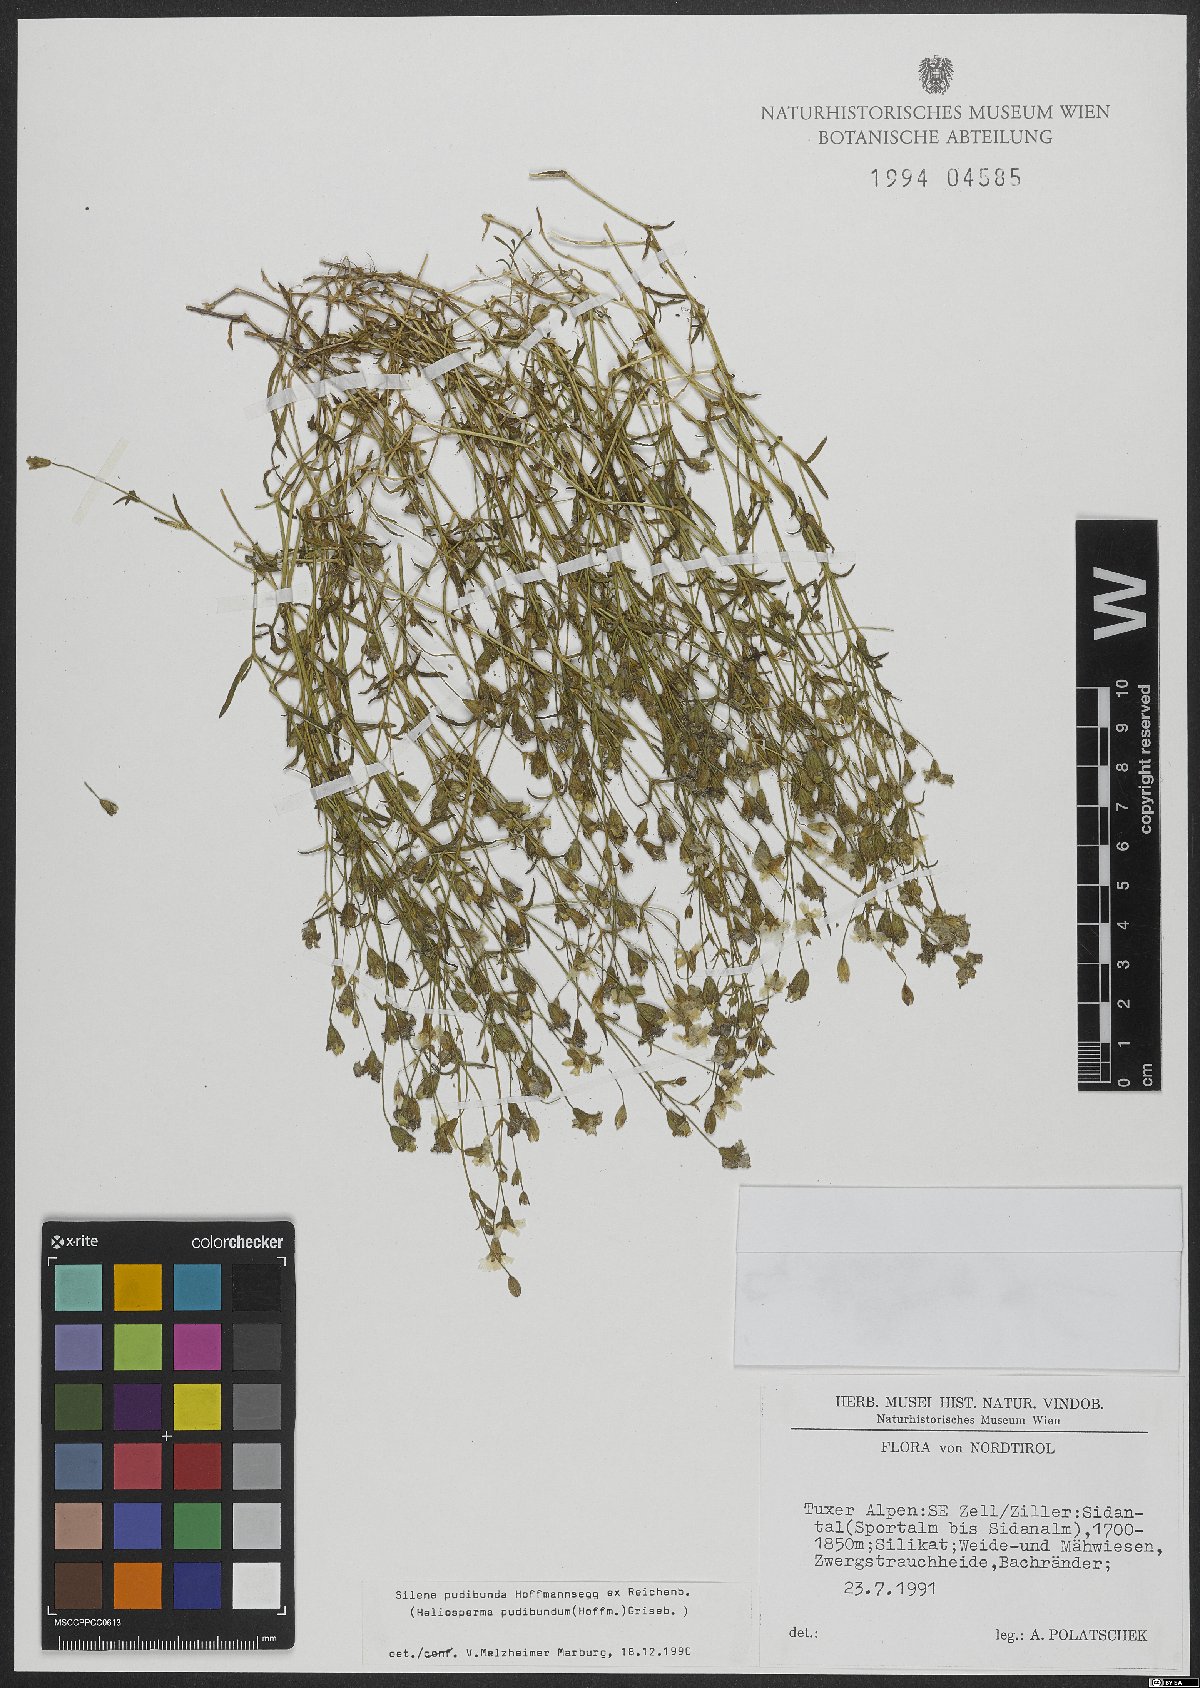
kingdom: Plantae
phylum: Tracheophyta
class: Magnoliopsida
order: Caryophyllales
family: Caryophyllaceae
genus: Heliosperma
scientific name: Heliosperma pudibundum
